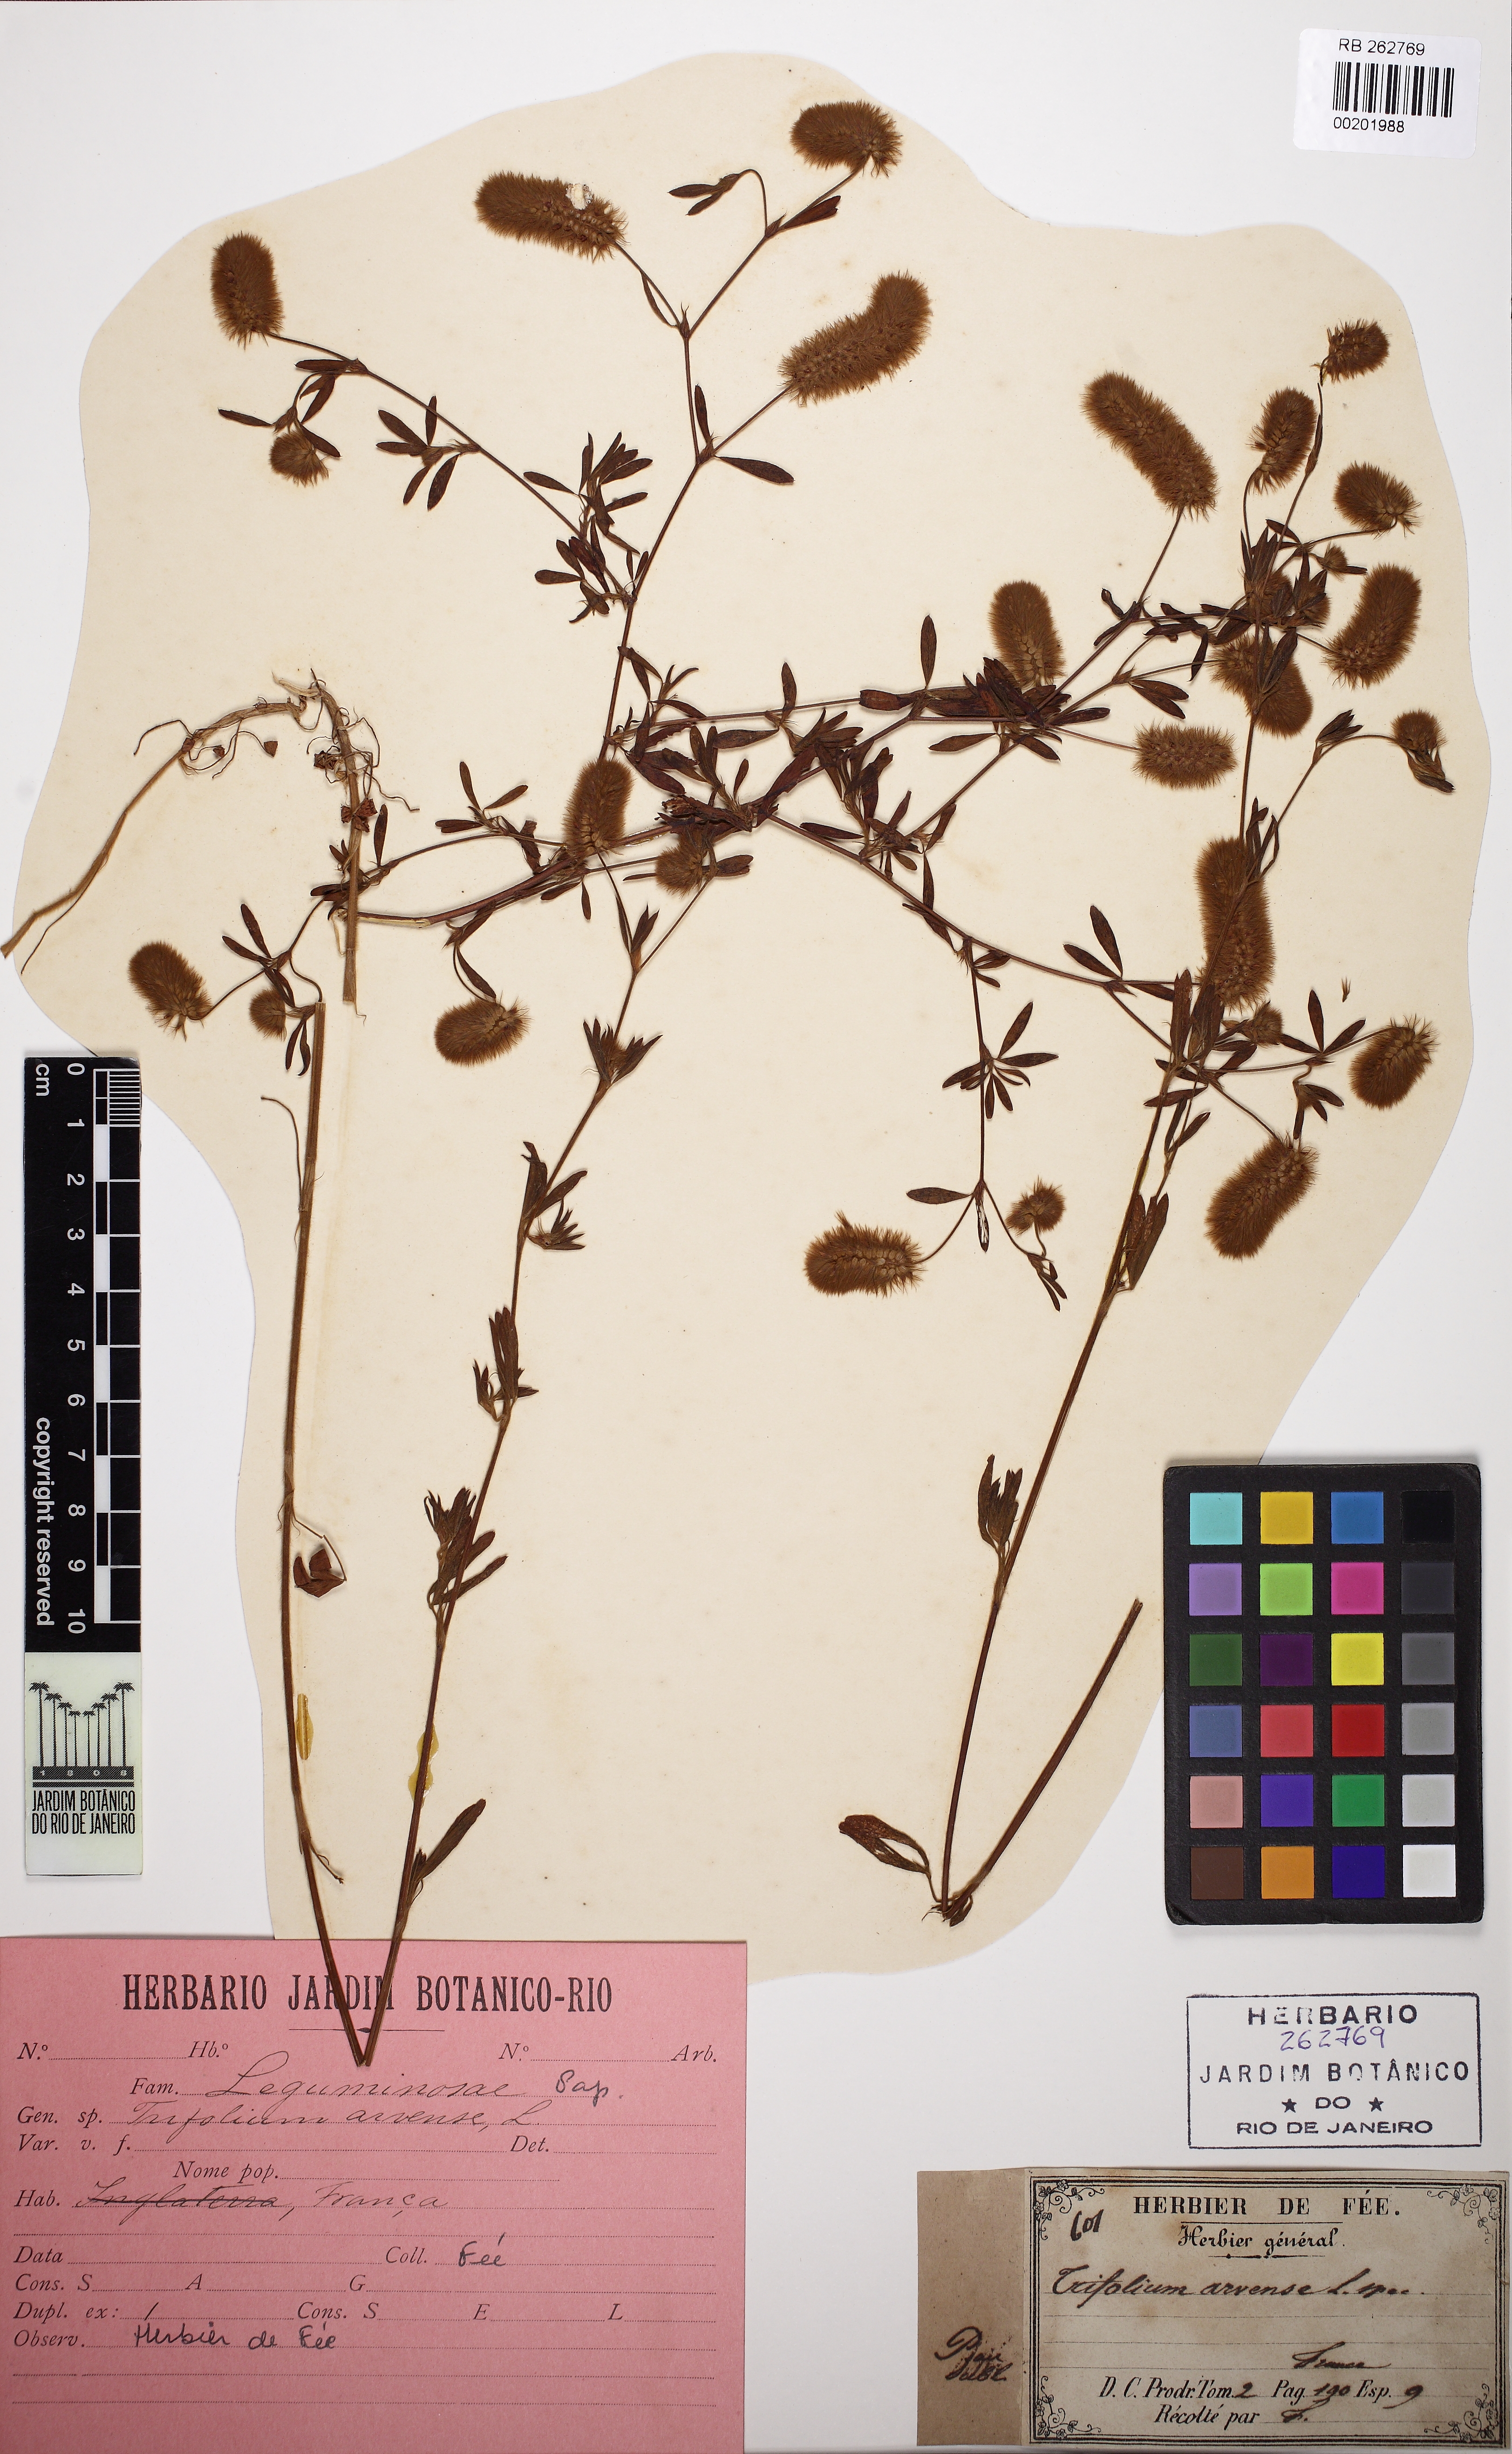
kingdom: Plantae
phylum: Tracheophyta
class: Magnoliopsida
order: Fabales
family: Fabaceae
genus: Trifolium
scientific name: Trifolium arvense
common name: Hare's-foot clover
